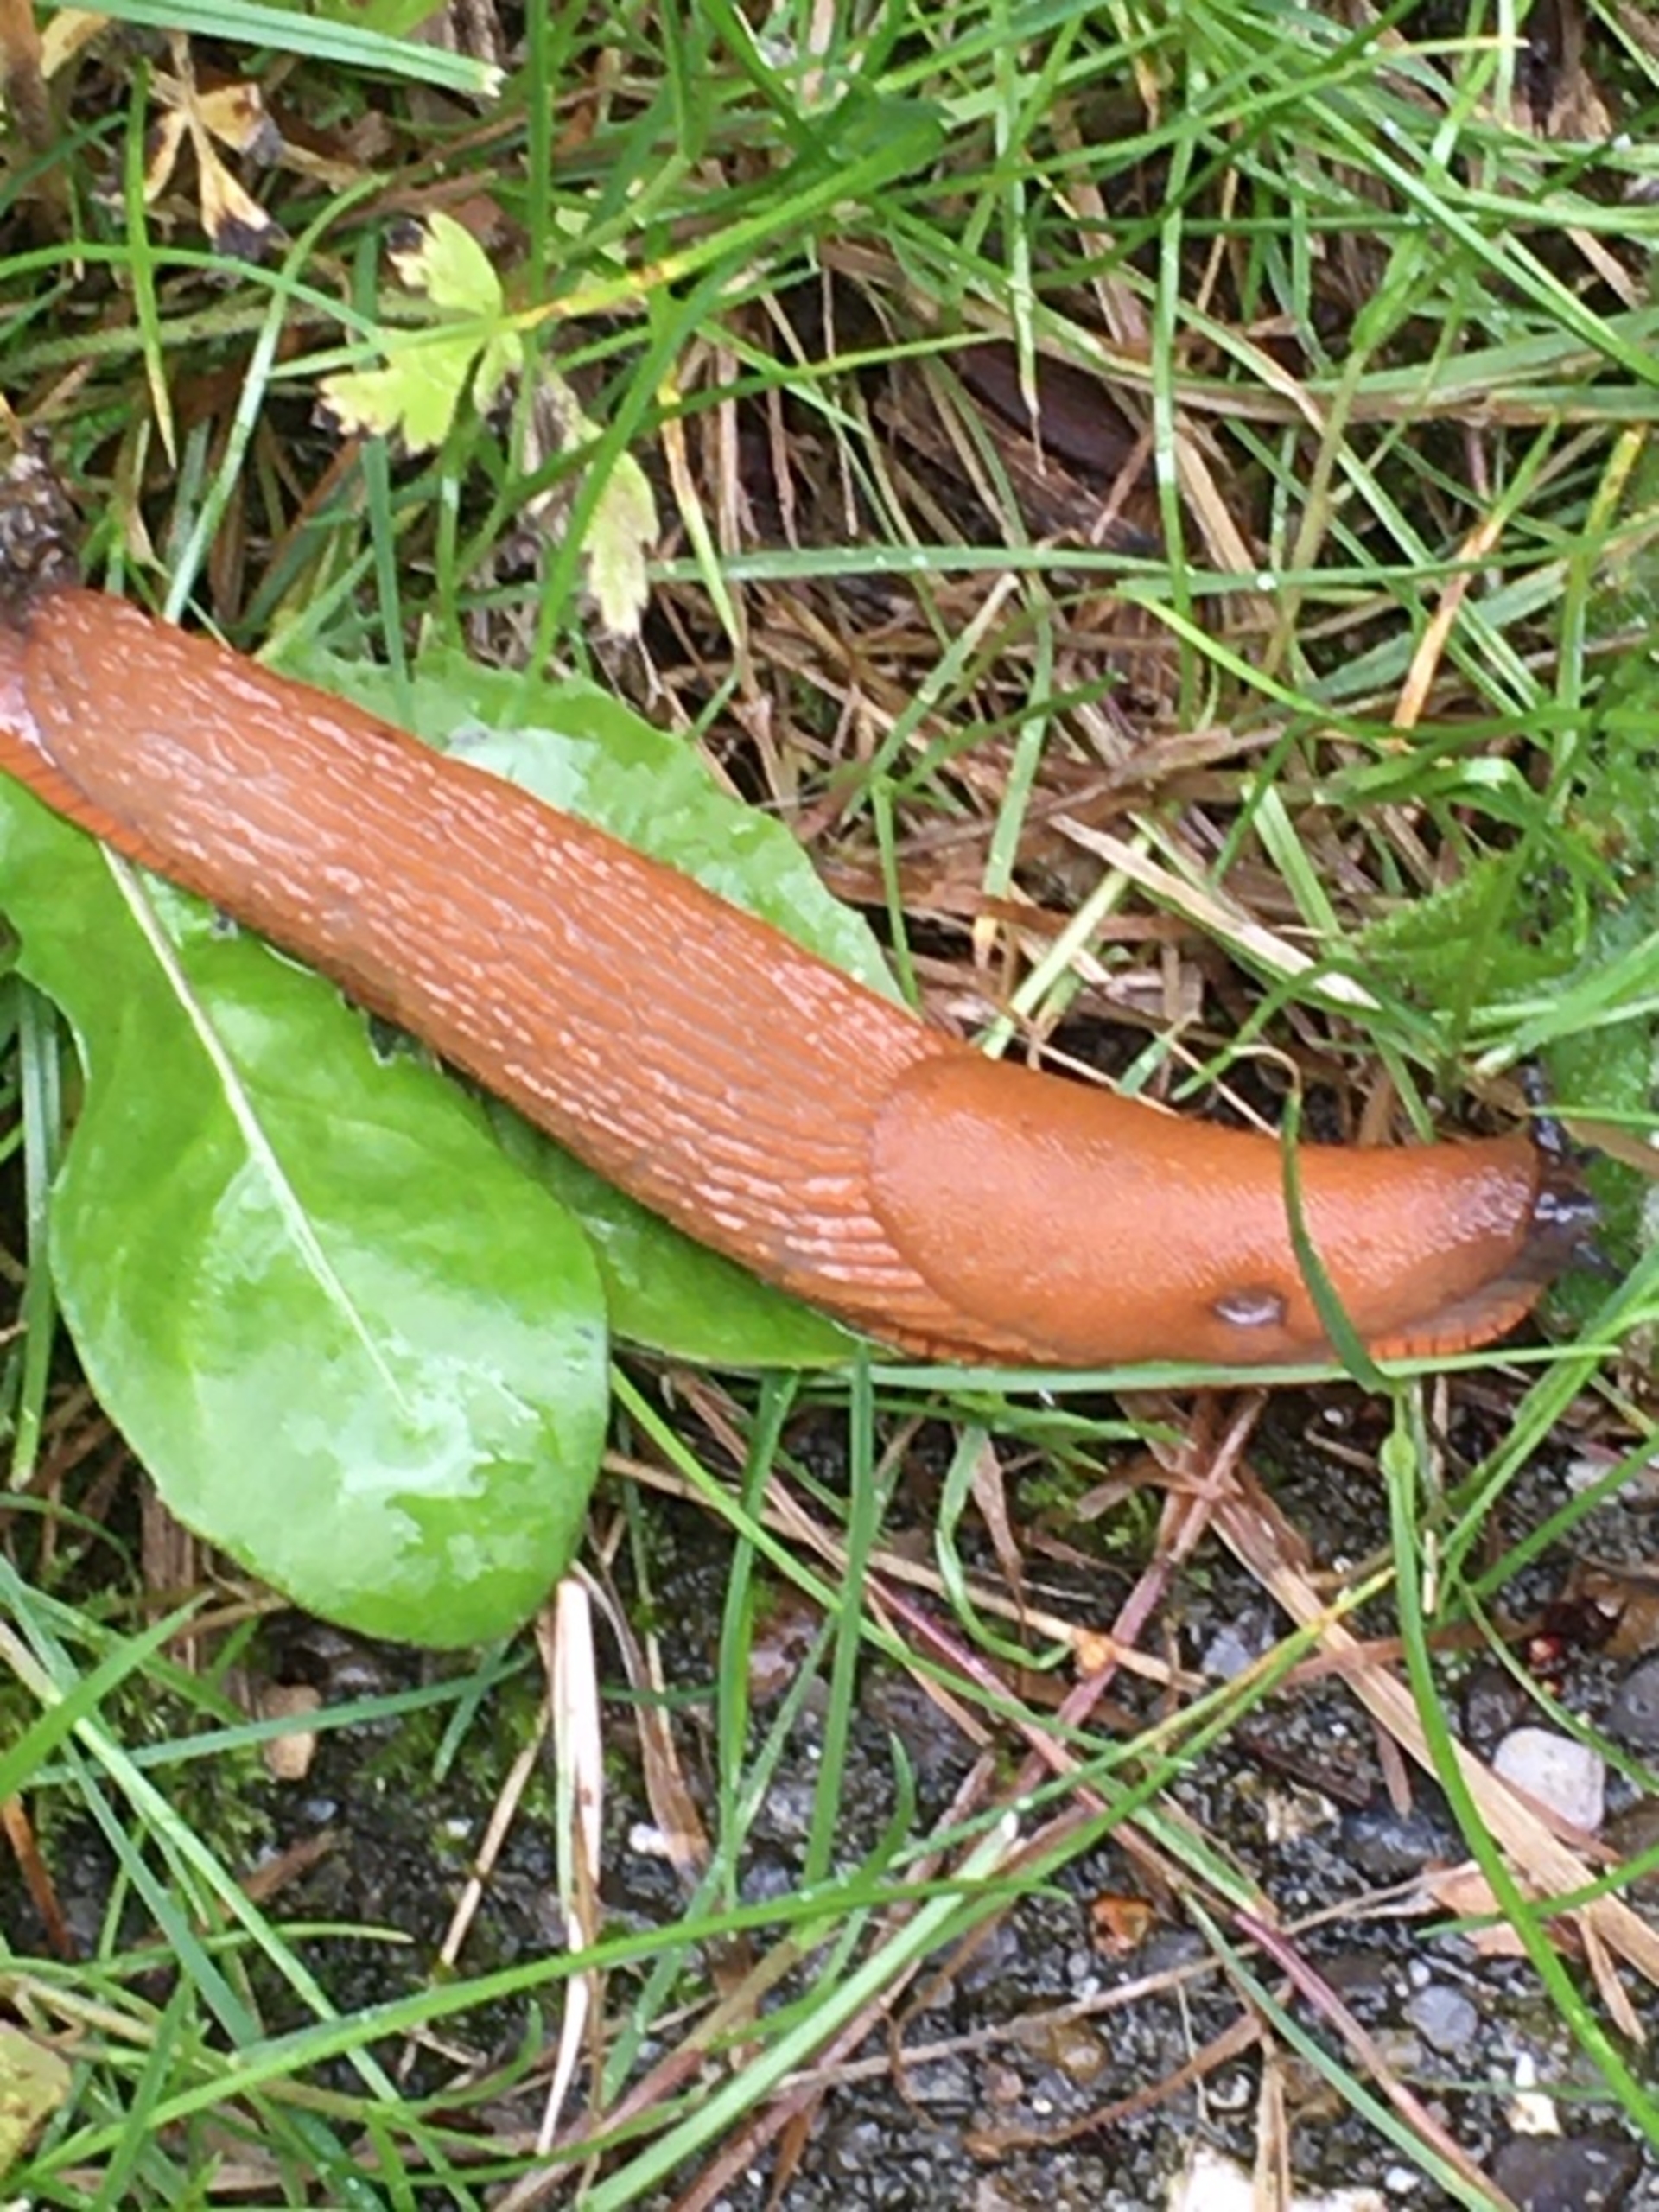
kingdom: Animalia
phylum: Mollusca
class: Gastropoda
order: Stylommatophora
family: Arionidae
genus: Arion
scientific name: Arion vulgaris
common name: Iberisk skovsnegl
